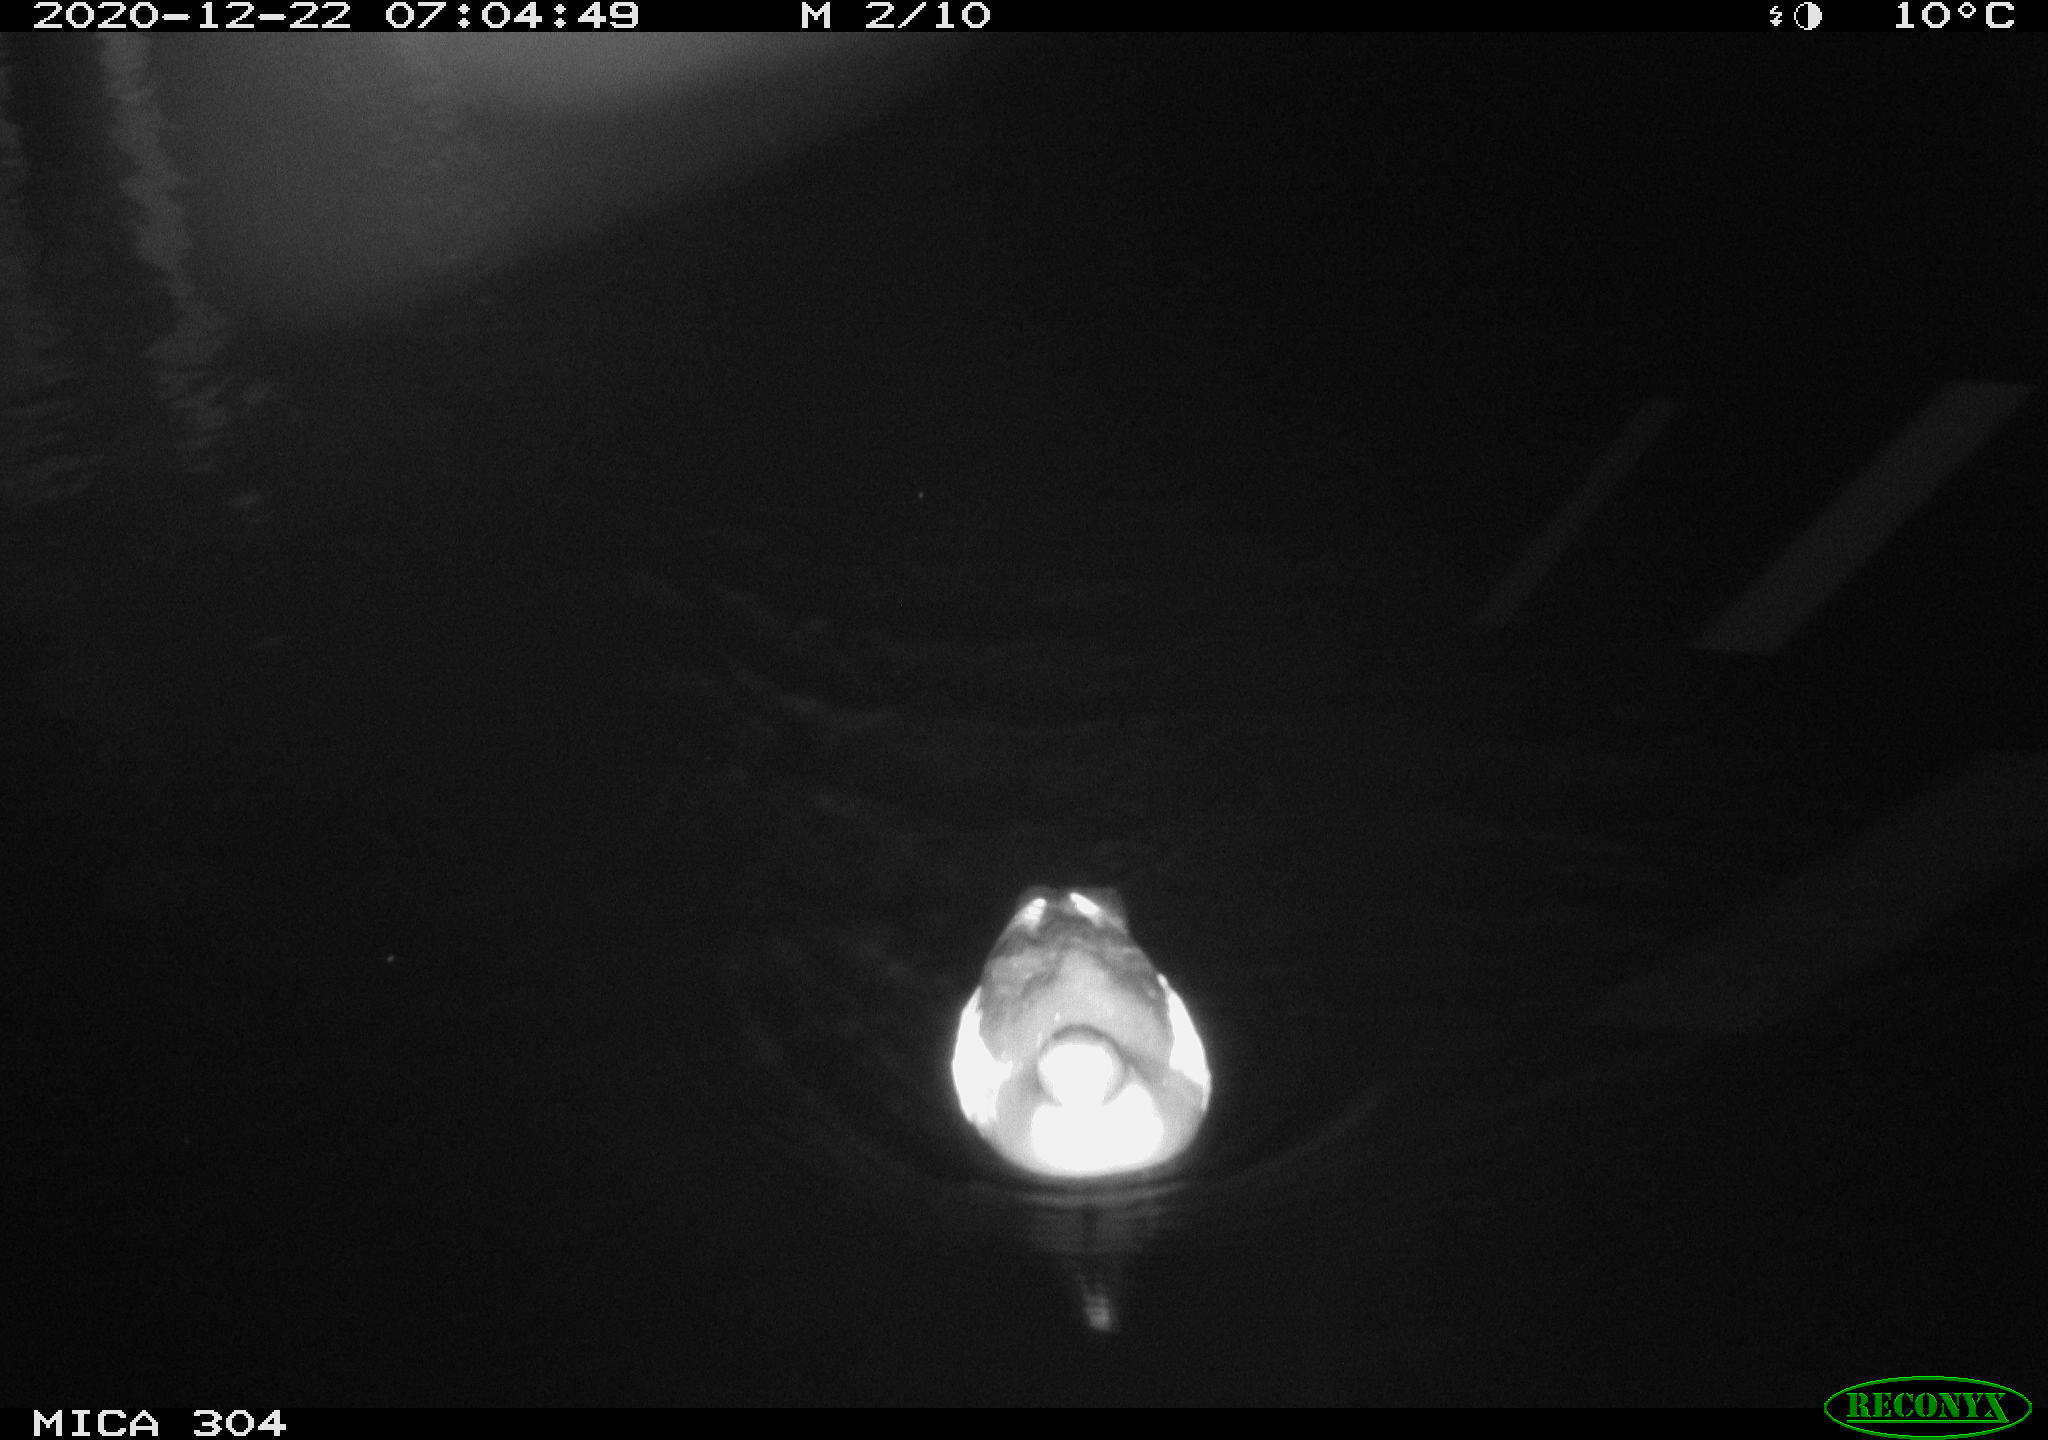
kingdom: Animalia
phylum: Chordata
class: Aves
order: Gruiformes
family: Rallidae
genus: Gallinula
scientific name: Gallinula chloropus
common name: Common moorhen
